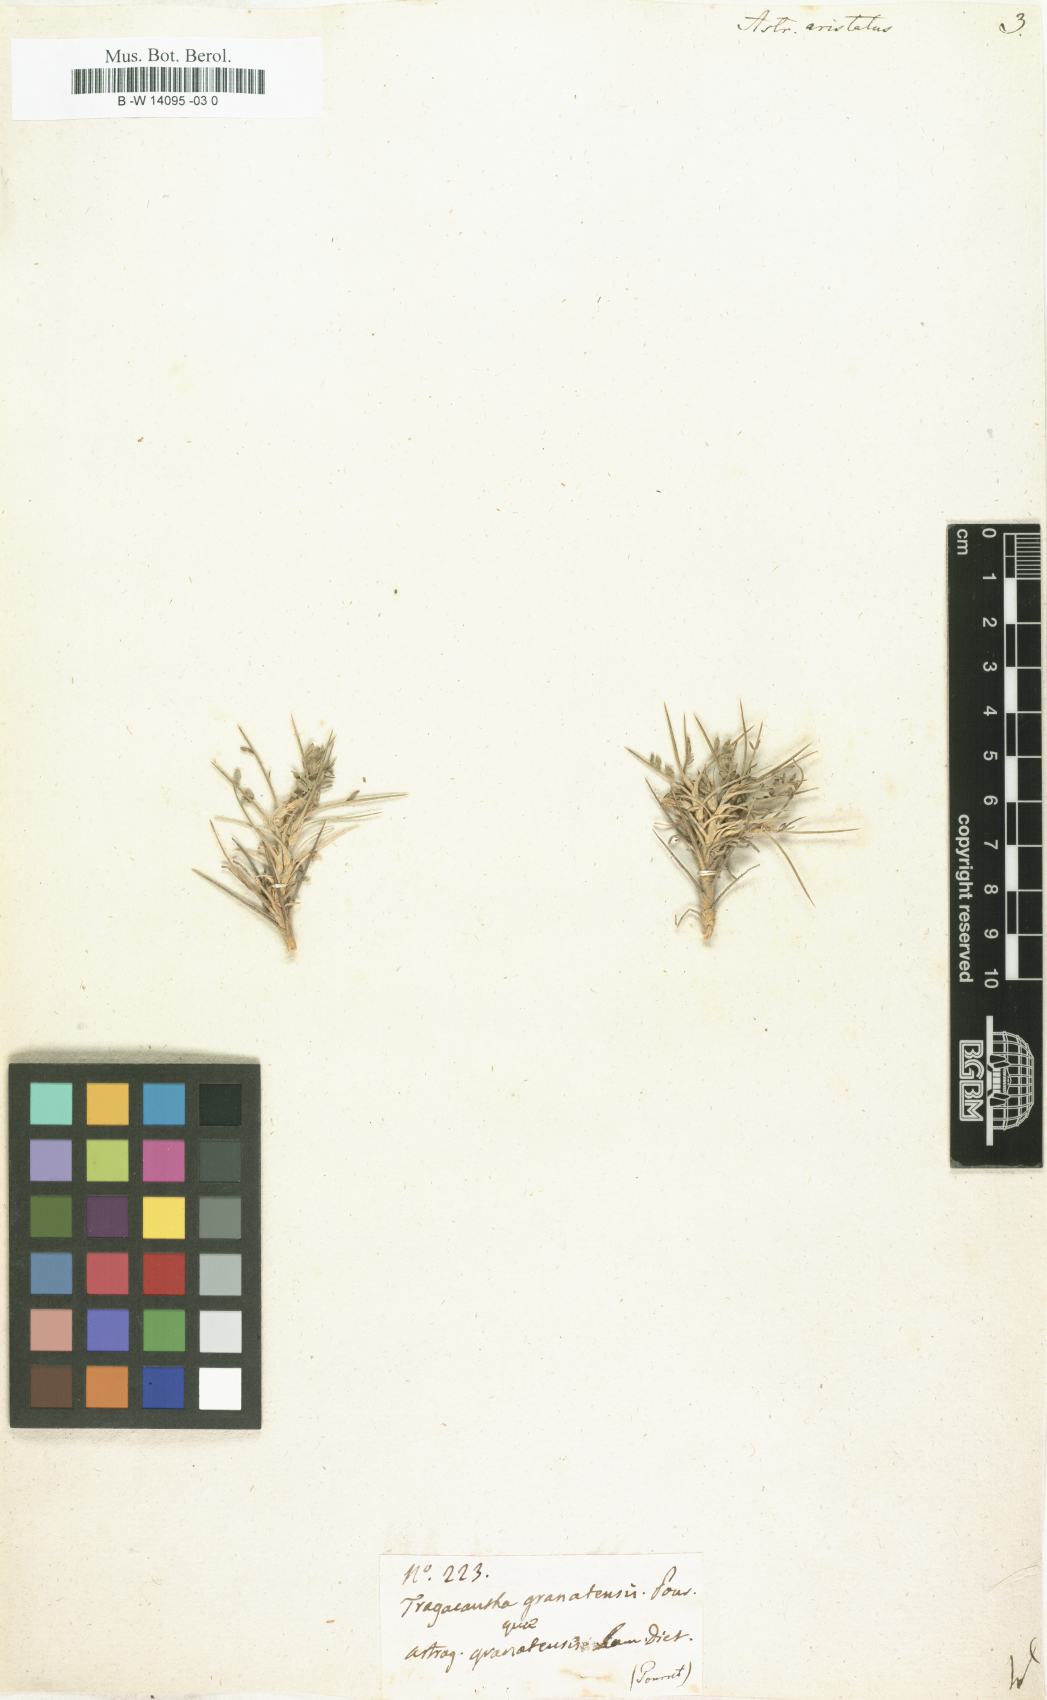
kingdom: Plantae
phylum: Tracheophyta
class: Magnoliopsida
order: Fabales
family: Fabaceae
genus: Astragalus
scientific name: Astragalus
